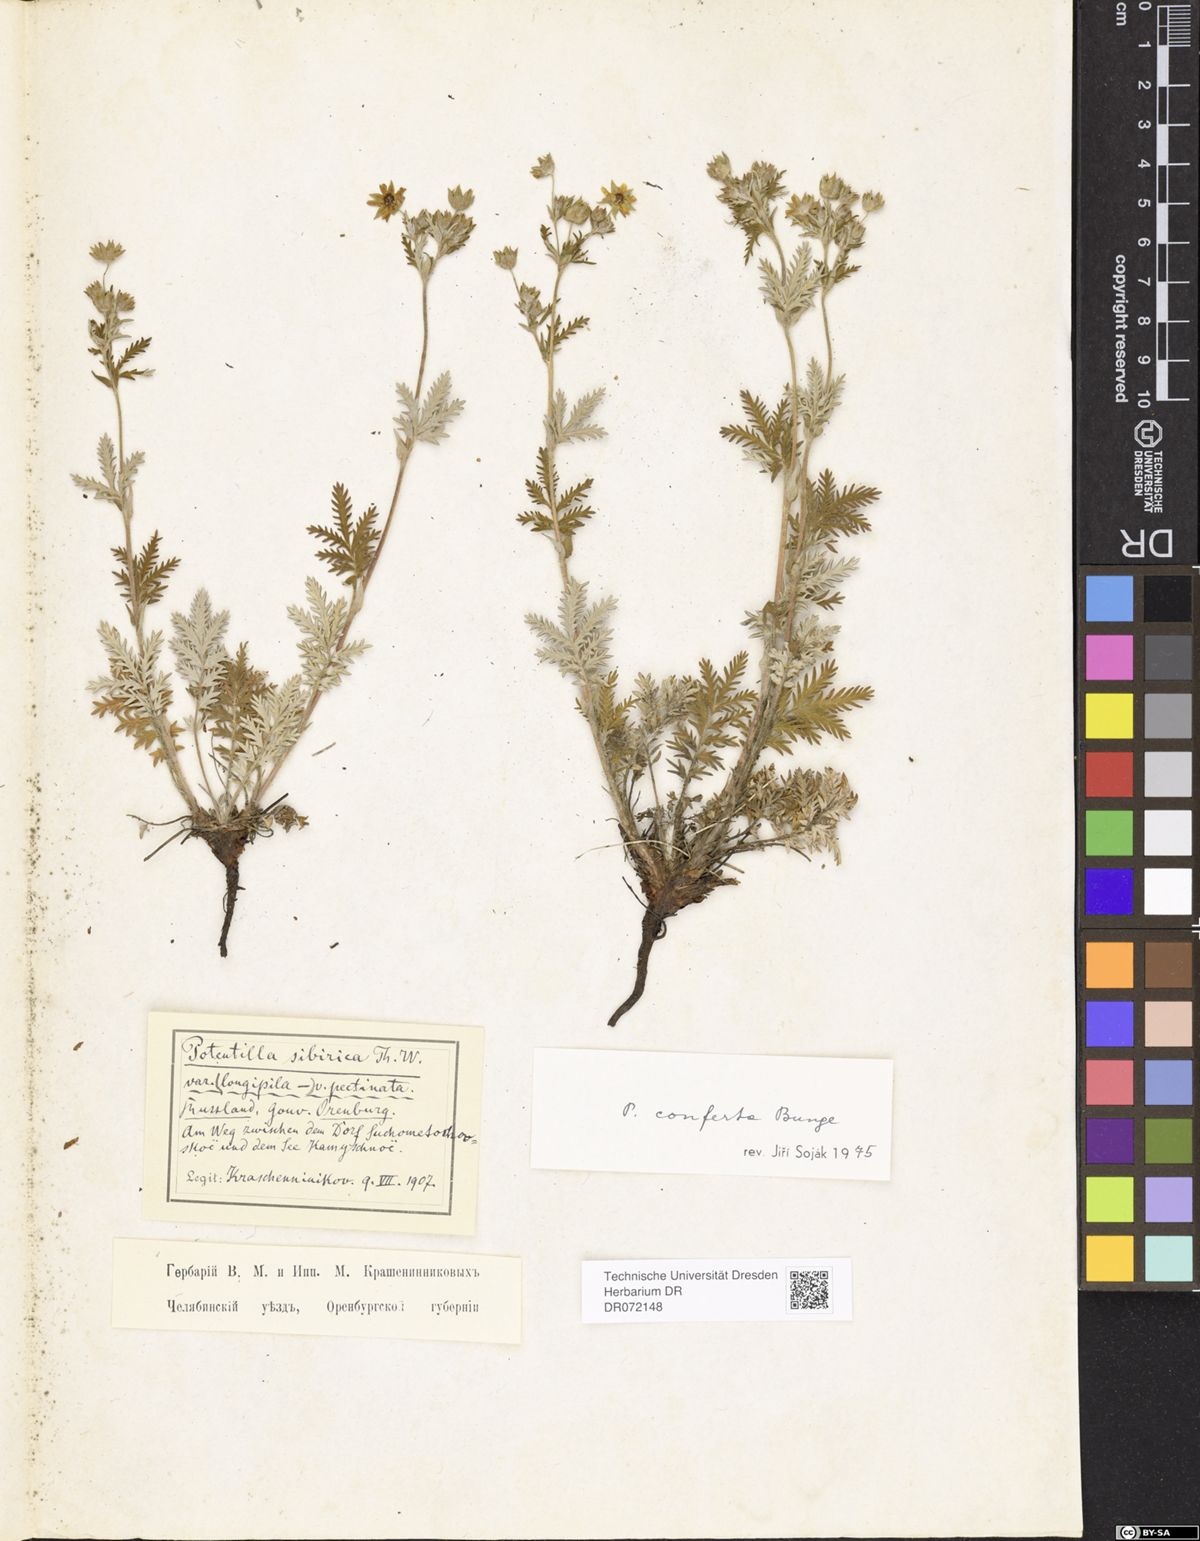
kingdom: Plantae
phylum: Tracheophyta
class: Magnoliopsida
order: Rosales
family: Rosaceae
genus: Potentilla
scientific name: Potentilla conferta
